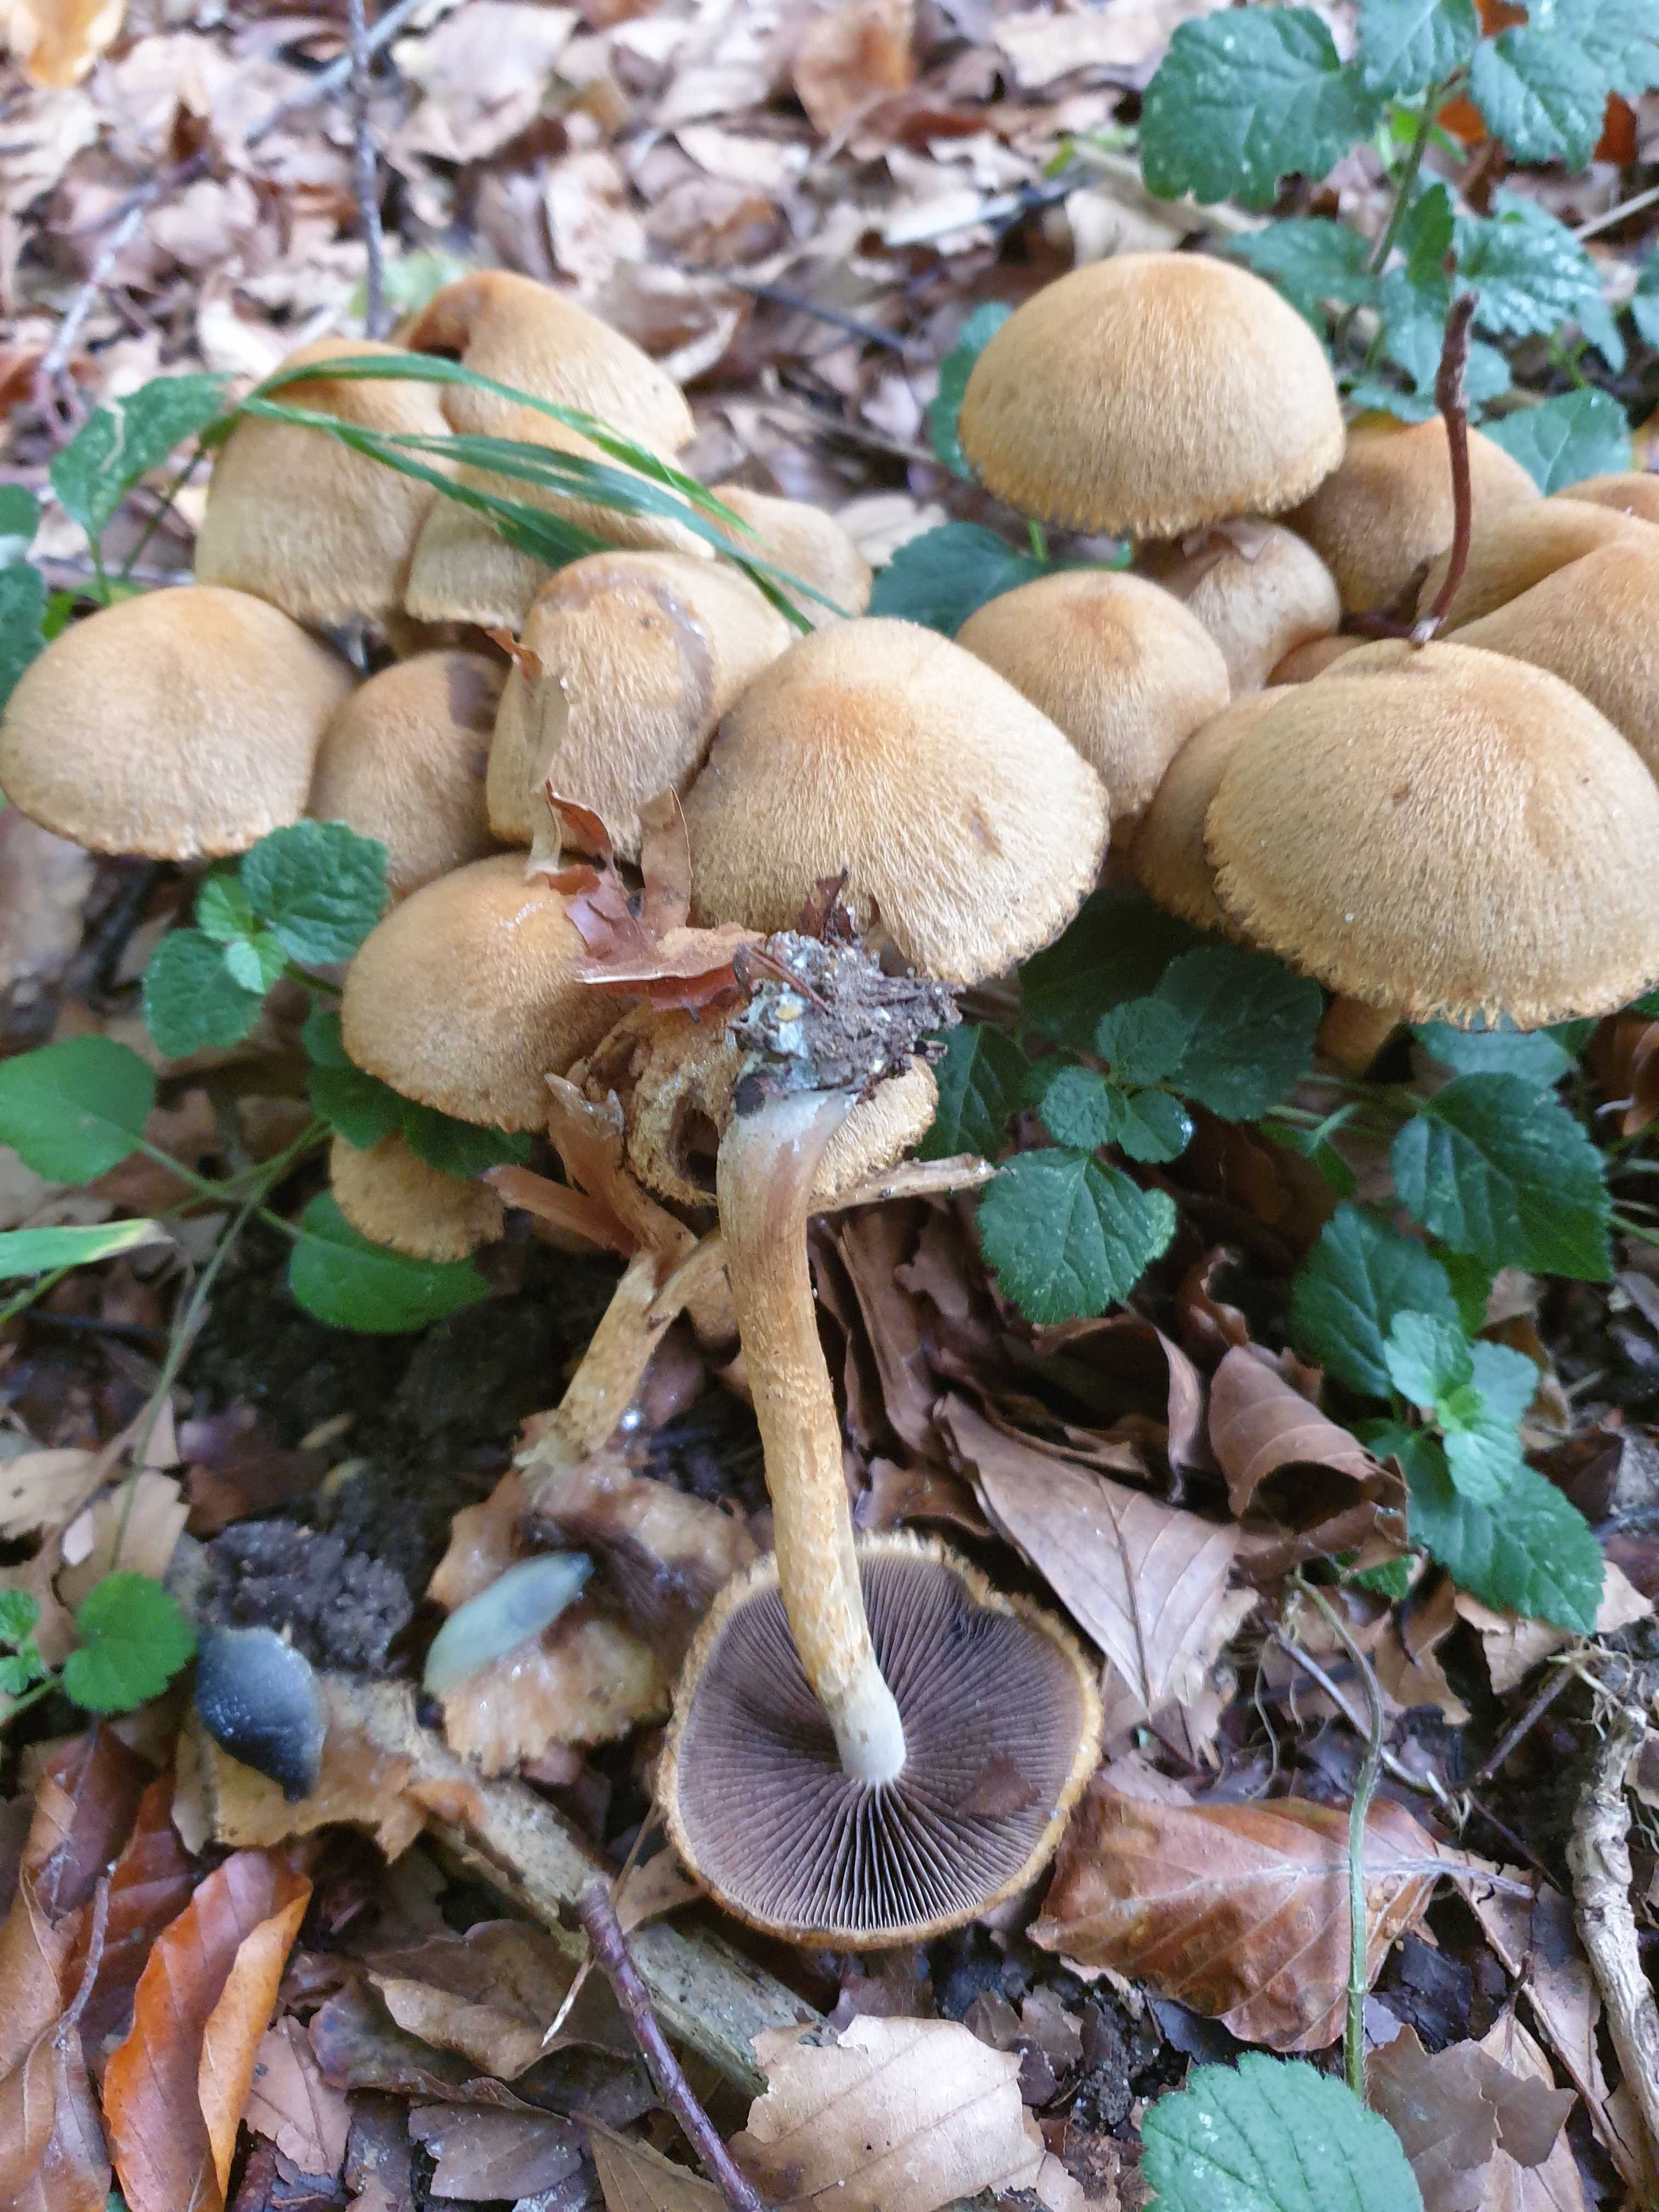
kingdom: Fungi
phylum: Basidiomycota
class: Agaricomycetes
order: Agaricales
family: Psathyrellaceae
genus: Lacrymaria
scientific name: Lacrymaria pyrotricha
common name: ildhåret mørkhat
